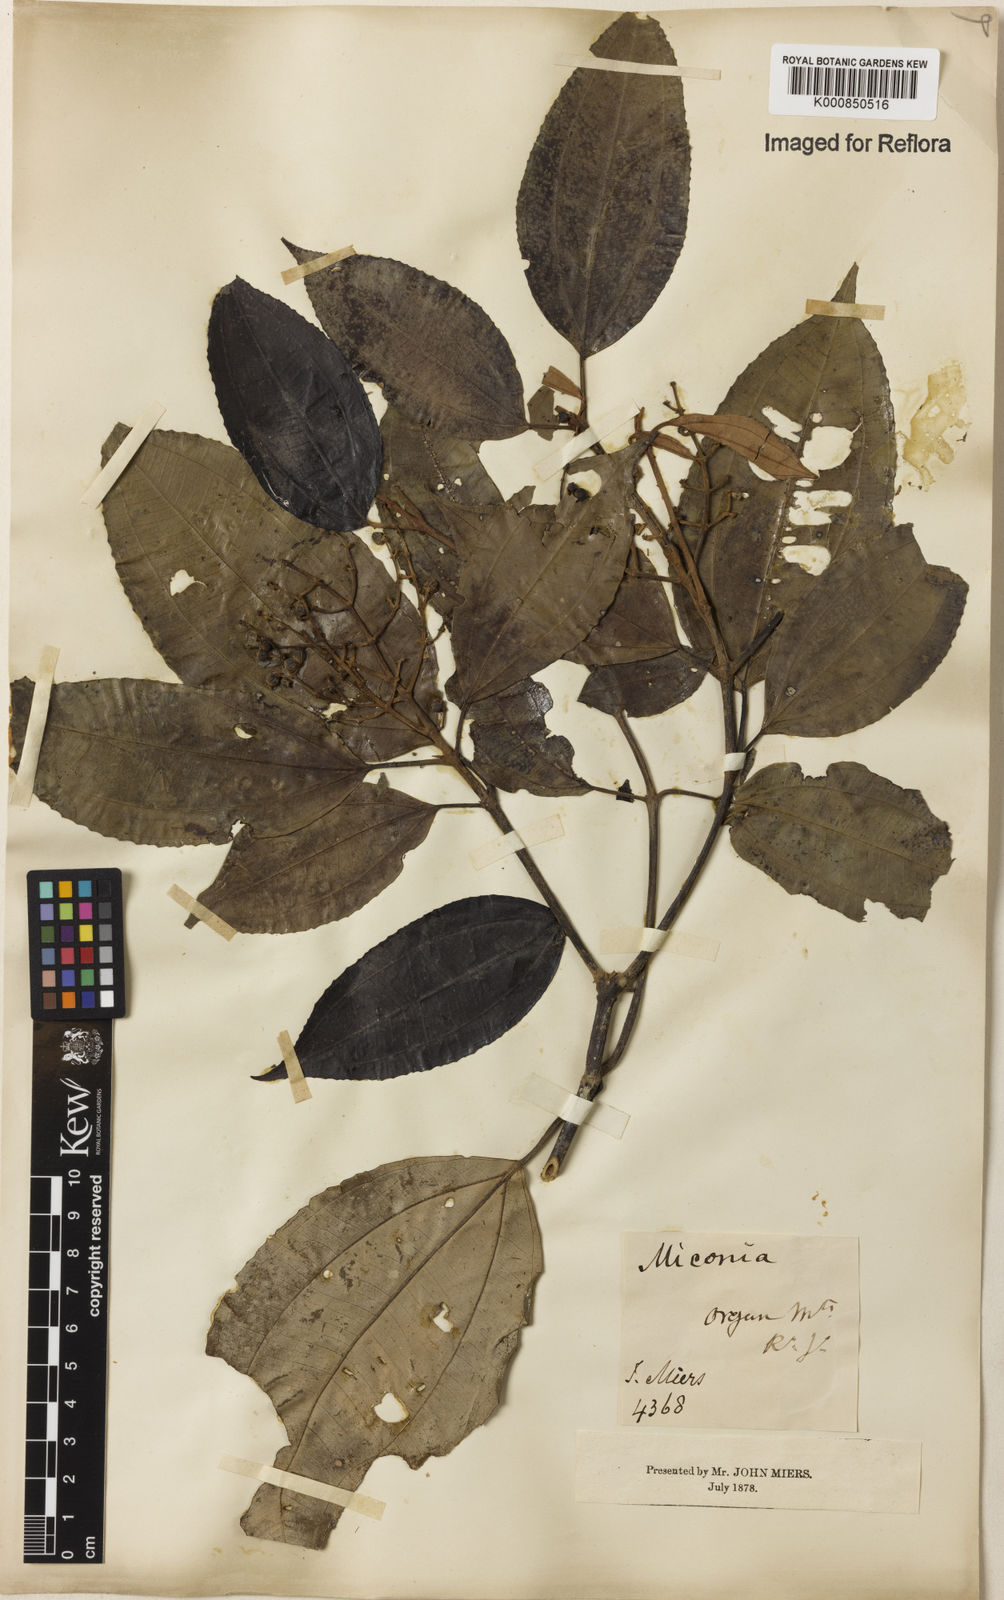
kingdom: Plantae
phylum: Tracheophyta
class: Magnoliopsida
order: Myrtales
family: Melastomataceae
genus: Miconia
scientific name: Miconia
